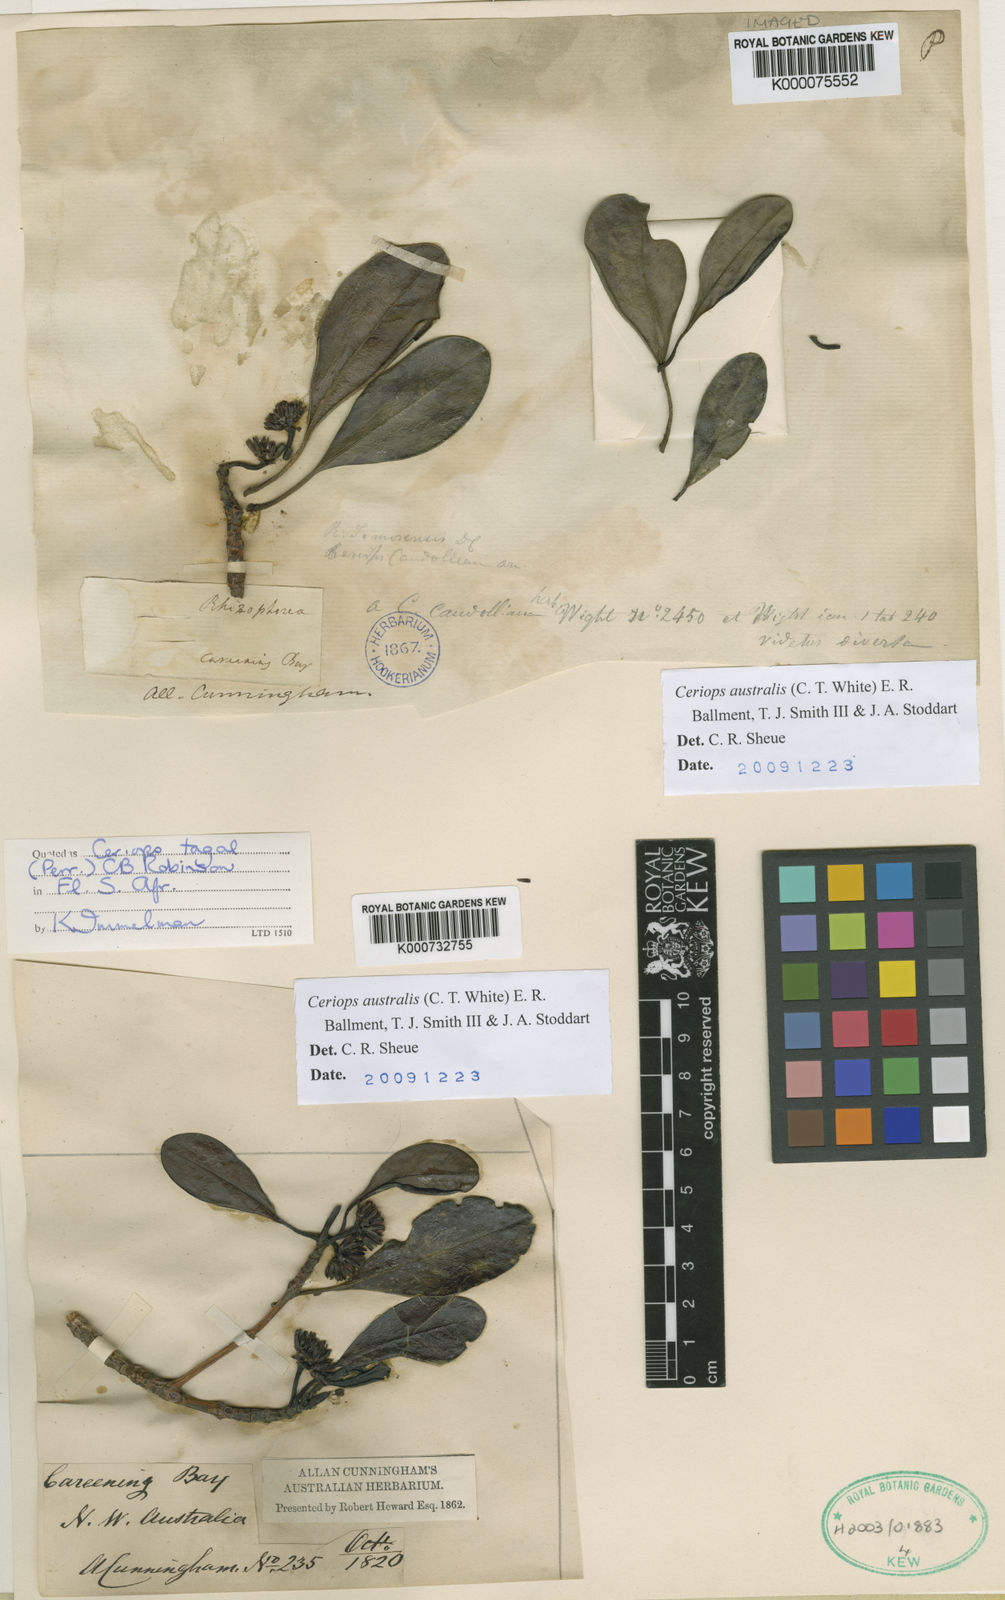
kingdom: Plantae
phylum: Tracheophyta
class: Magnoliopsida
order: Malpighiales
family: Rhizophoraceae
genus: Ceriops
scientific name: Ceriops tagal
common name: Spurred mangrove
